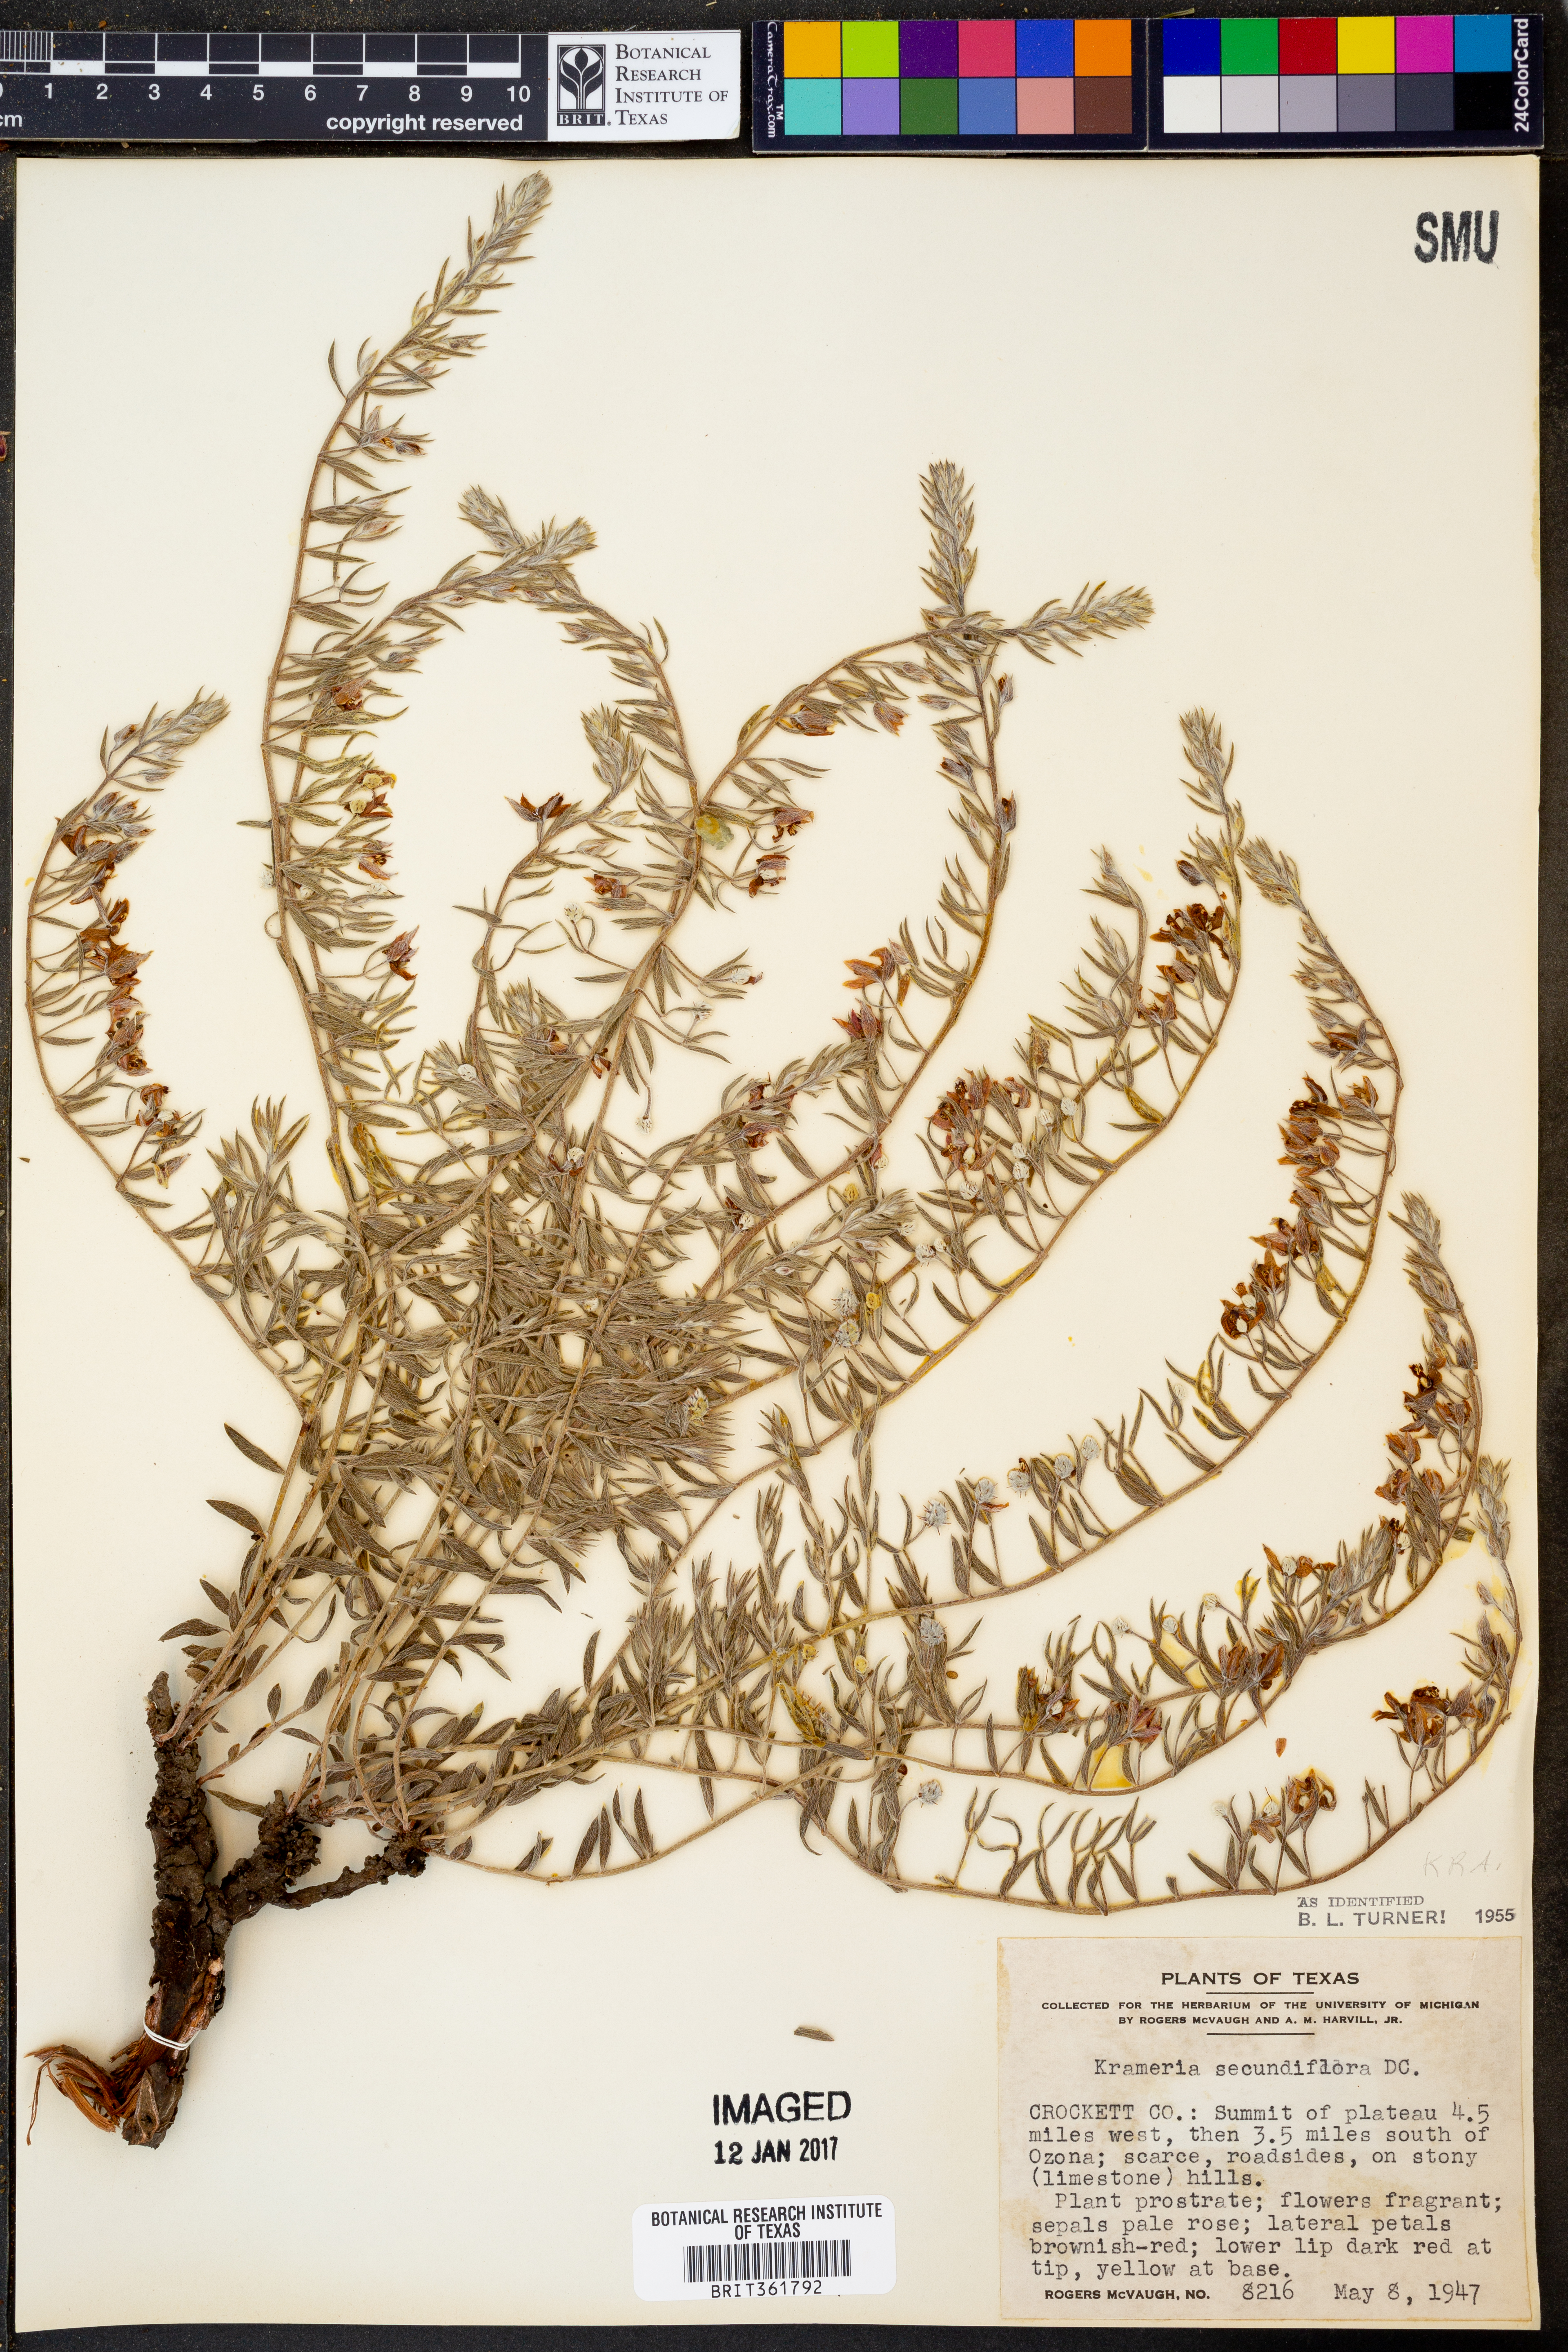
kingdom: Plantae
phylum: Tracheophyta
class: Magnoliopsida
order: Zygophyllales
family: Krameriaceae
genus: Krameria
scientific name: Krameria secundiflora
